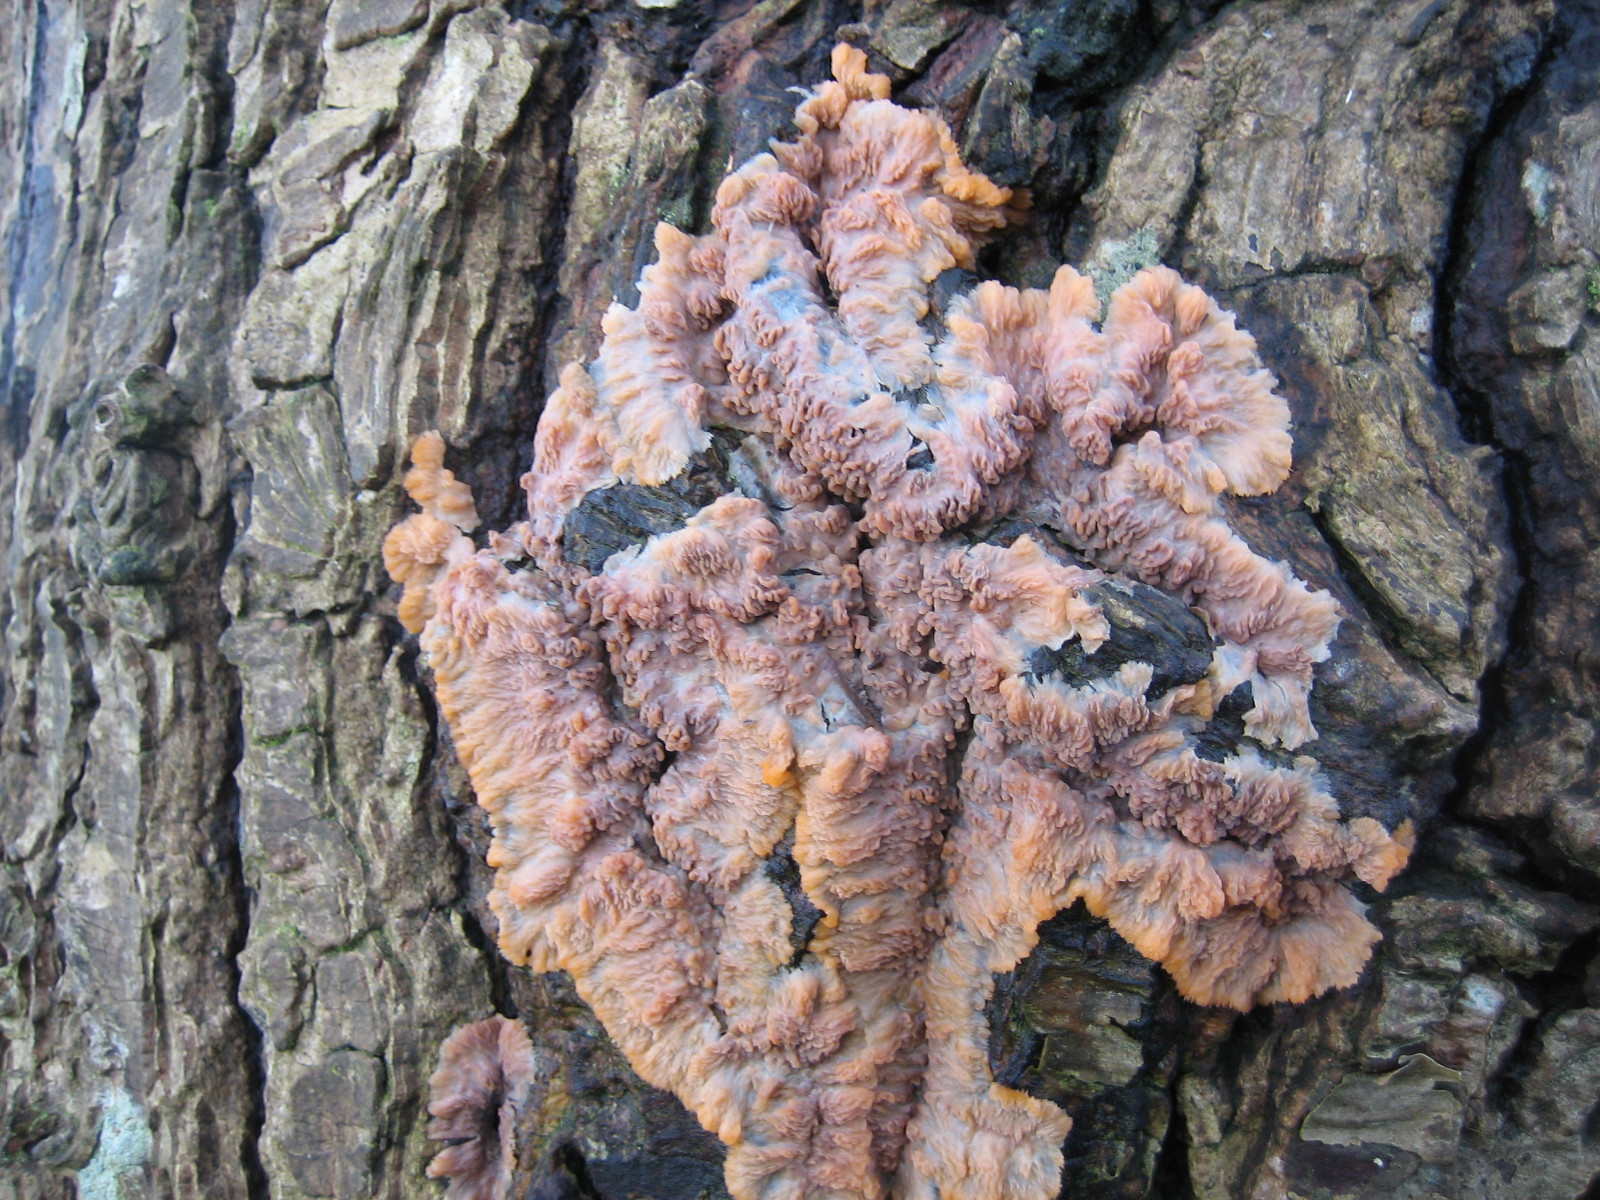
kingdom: Fungi
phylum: Basidiomycota
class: Agaricomycetes
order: Polyporales
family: Meruliaceae
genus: Phlebia
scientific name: Phlebia radiata
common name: stråle-åresvamp
